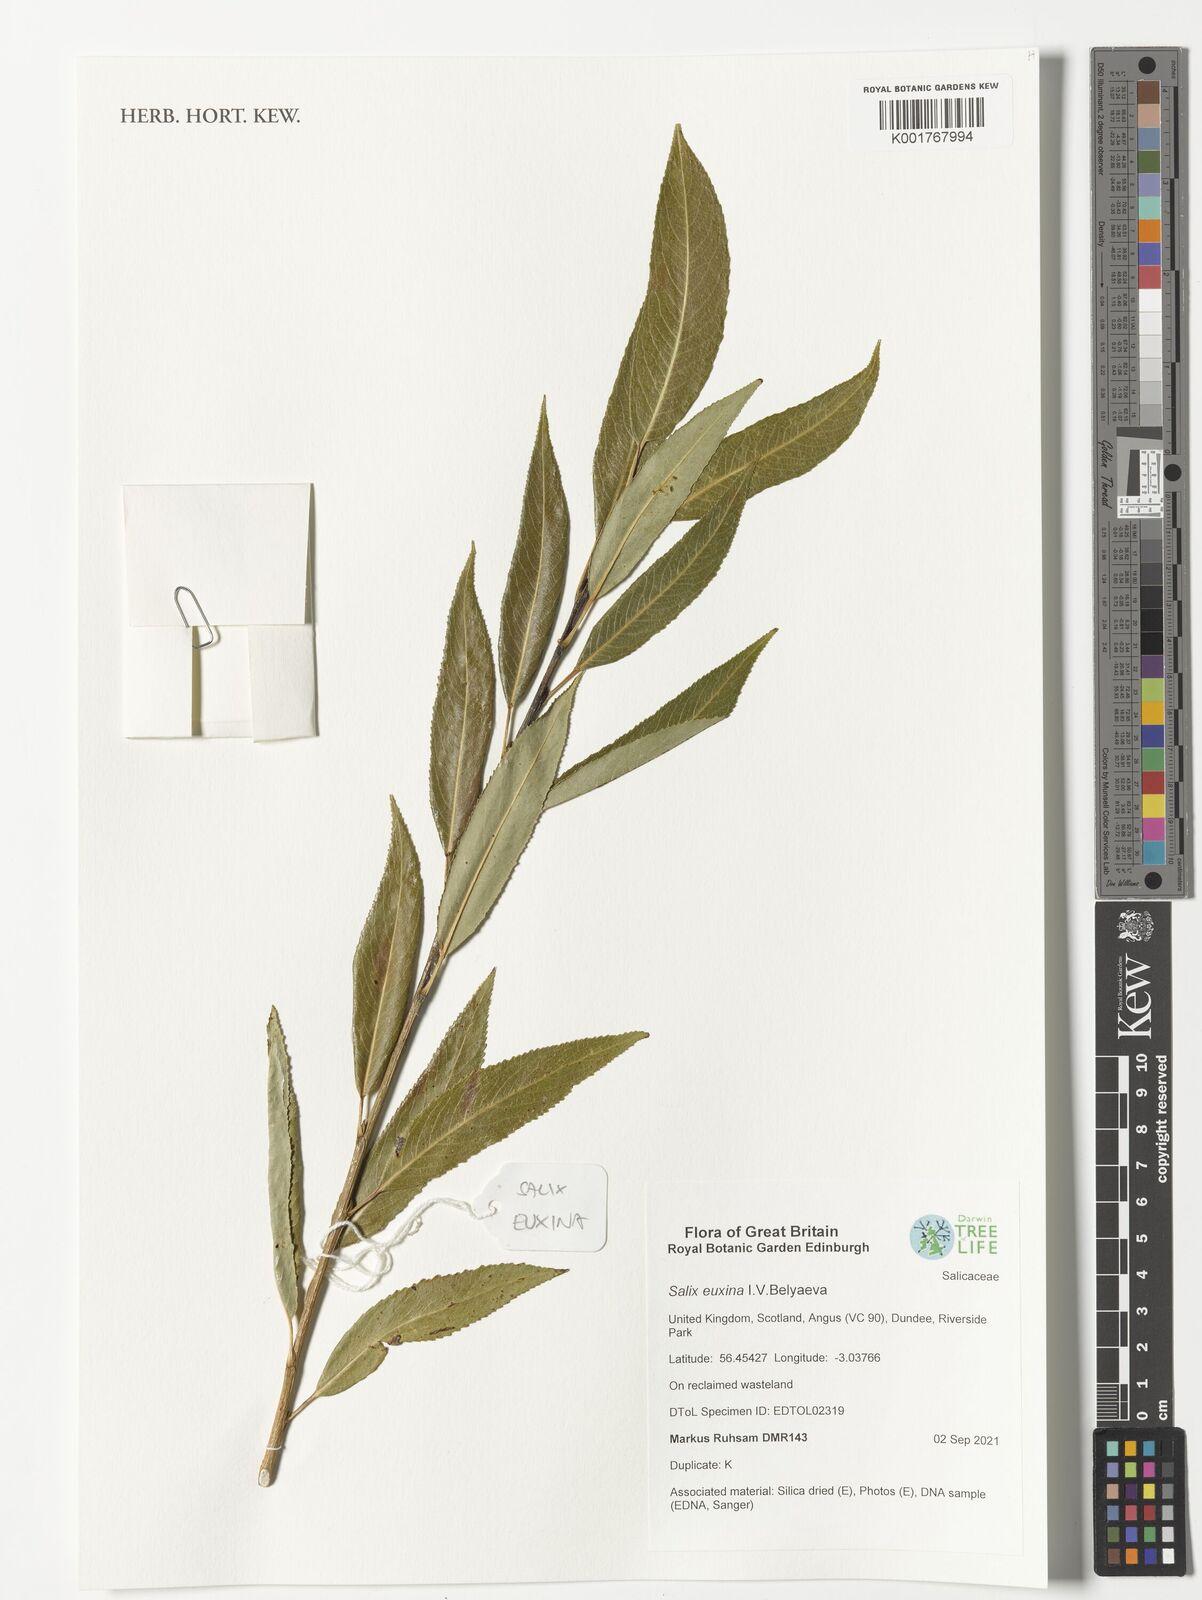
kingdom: Plantae
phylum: Tracheophyta
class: Magnoliopsida
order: Malpighiales
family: Salicaceae
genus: Salix
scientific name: Salix alba
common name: White willow
